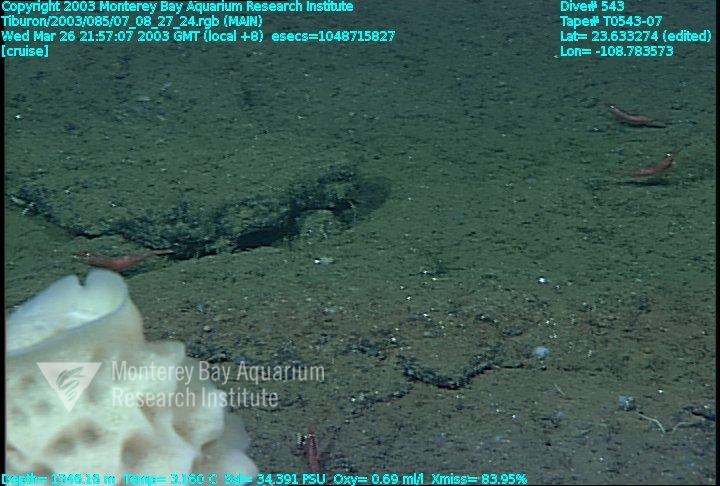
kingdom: Animalia
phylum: Porifera
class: Hexactinellida
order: Lyssacinosida
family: Euplectellidae
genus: Euplectella
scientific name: Euplectella
